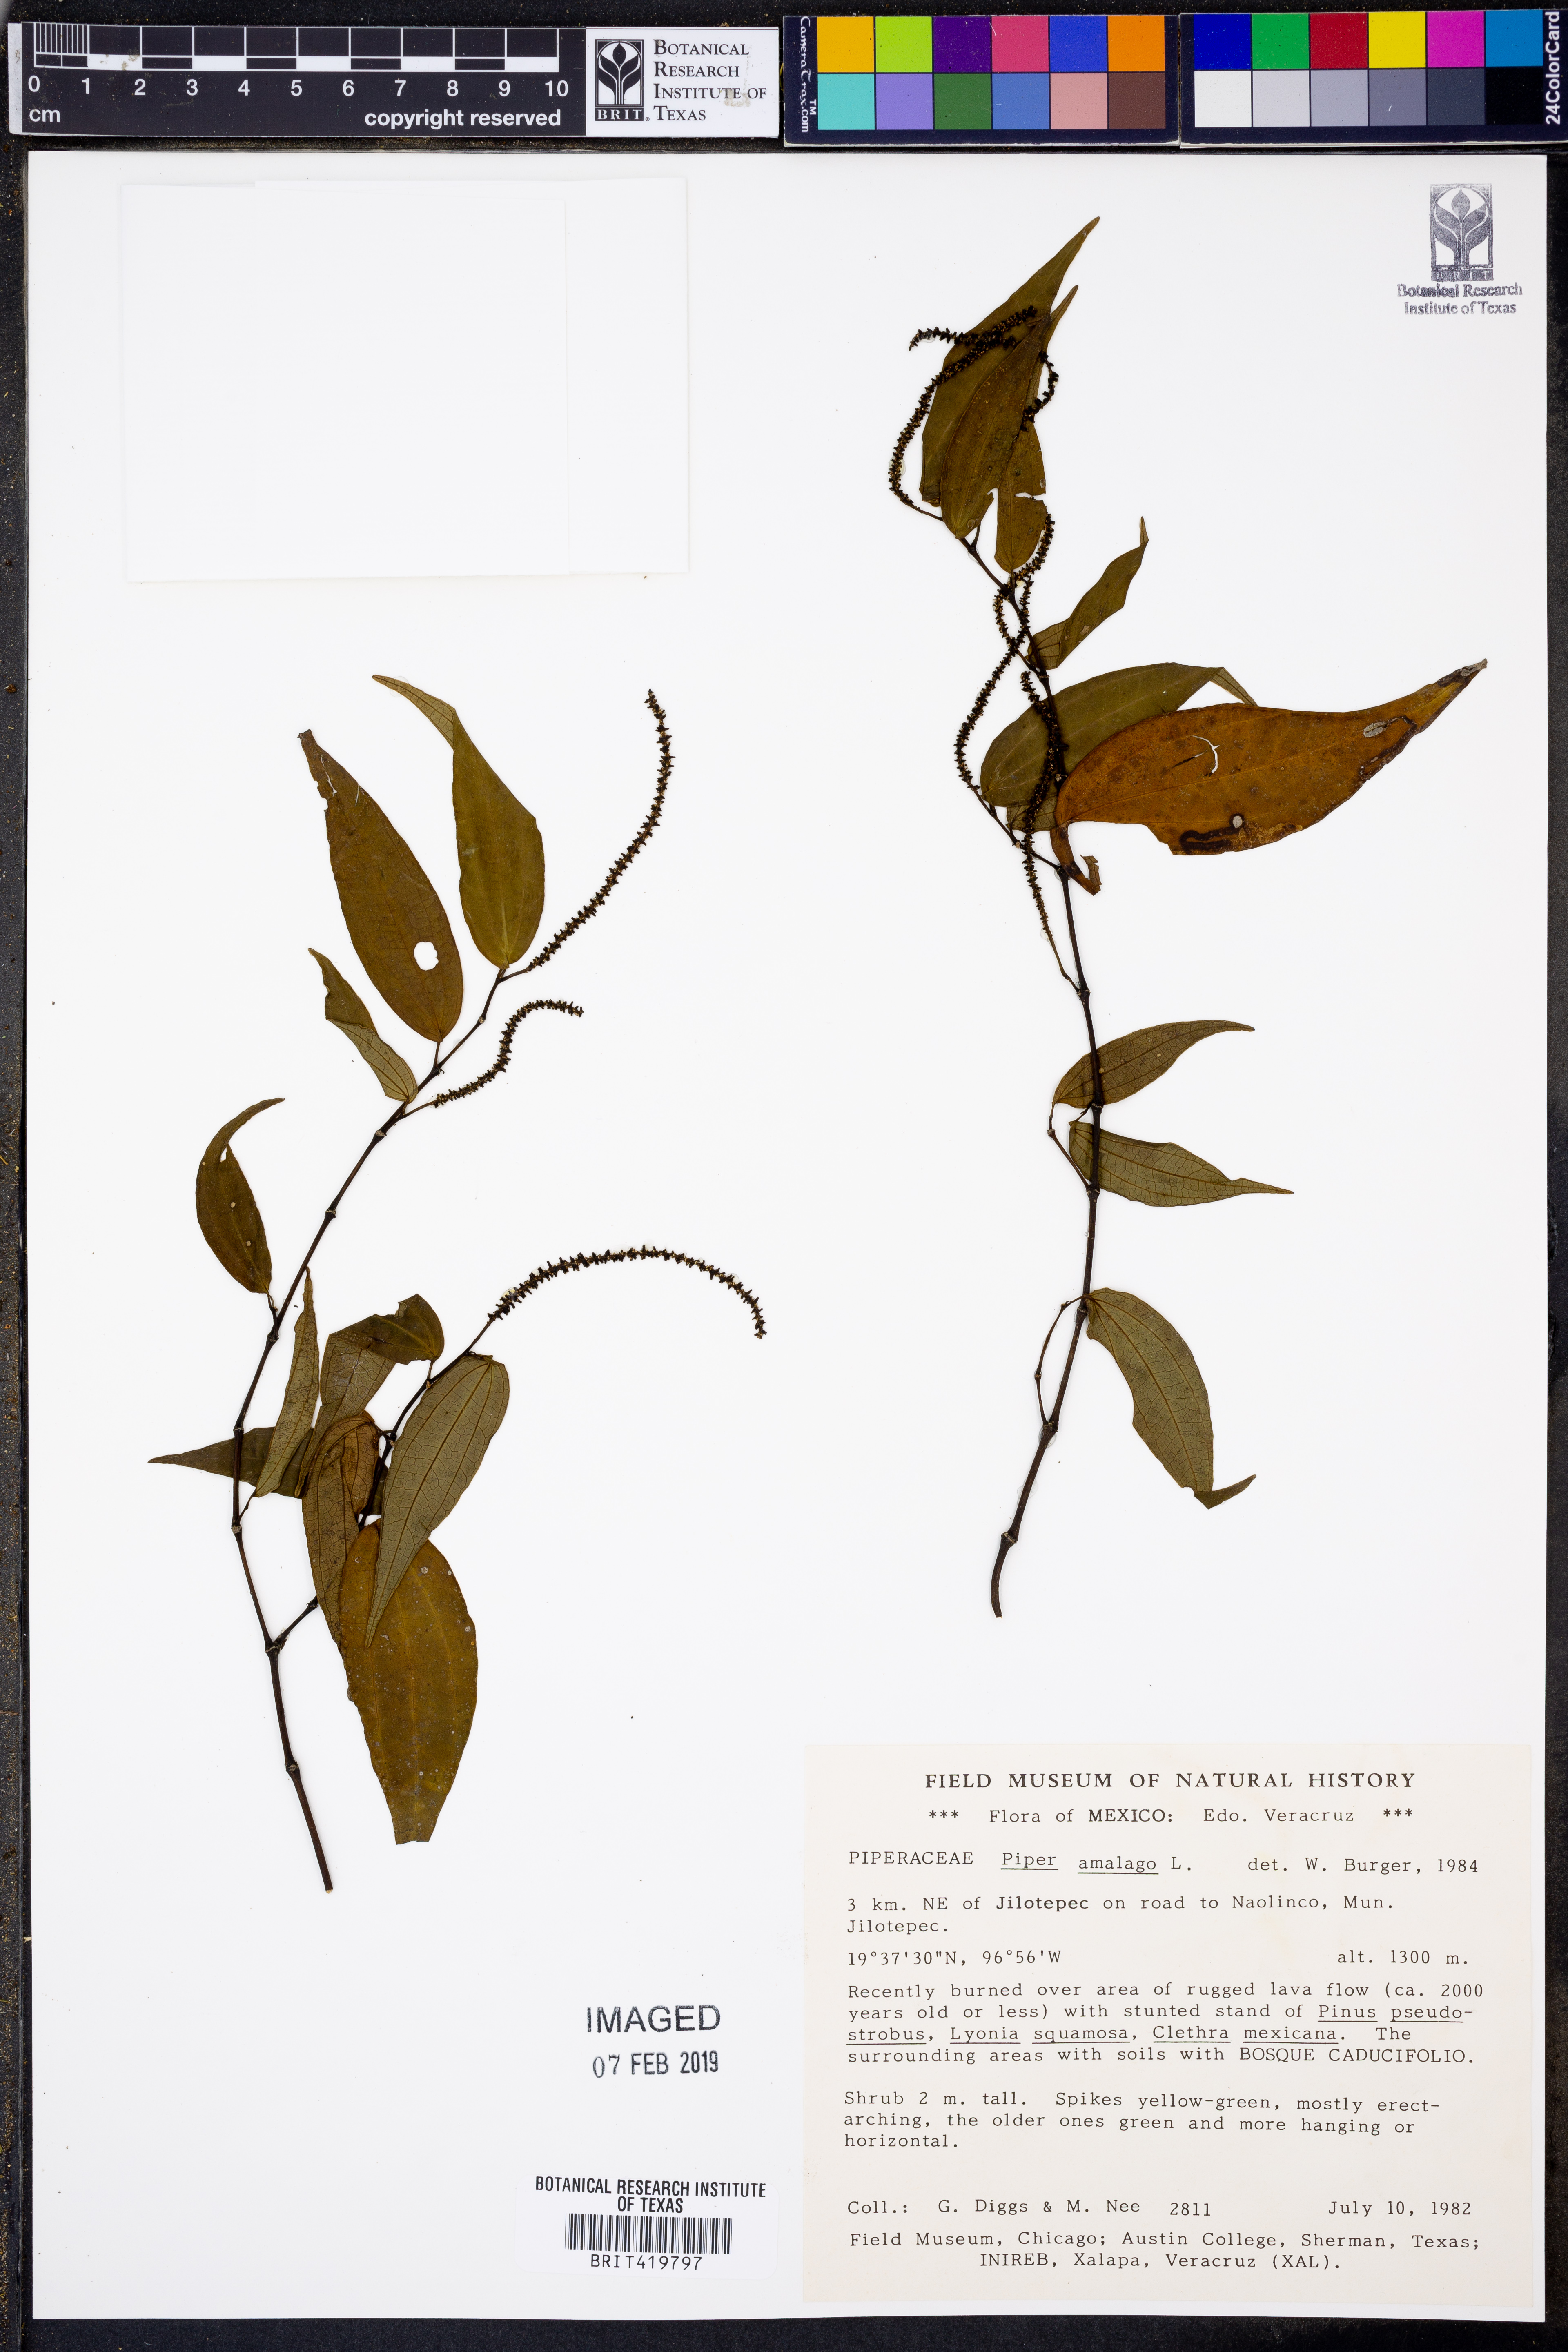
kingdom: Plantae
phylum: Tracheophyta
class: Magnoliopsida
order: Piperales
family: Piperaceae
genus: Piper
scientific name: Piper amalago
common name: Pepper-elder
